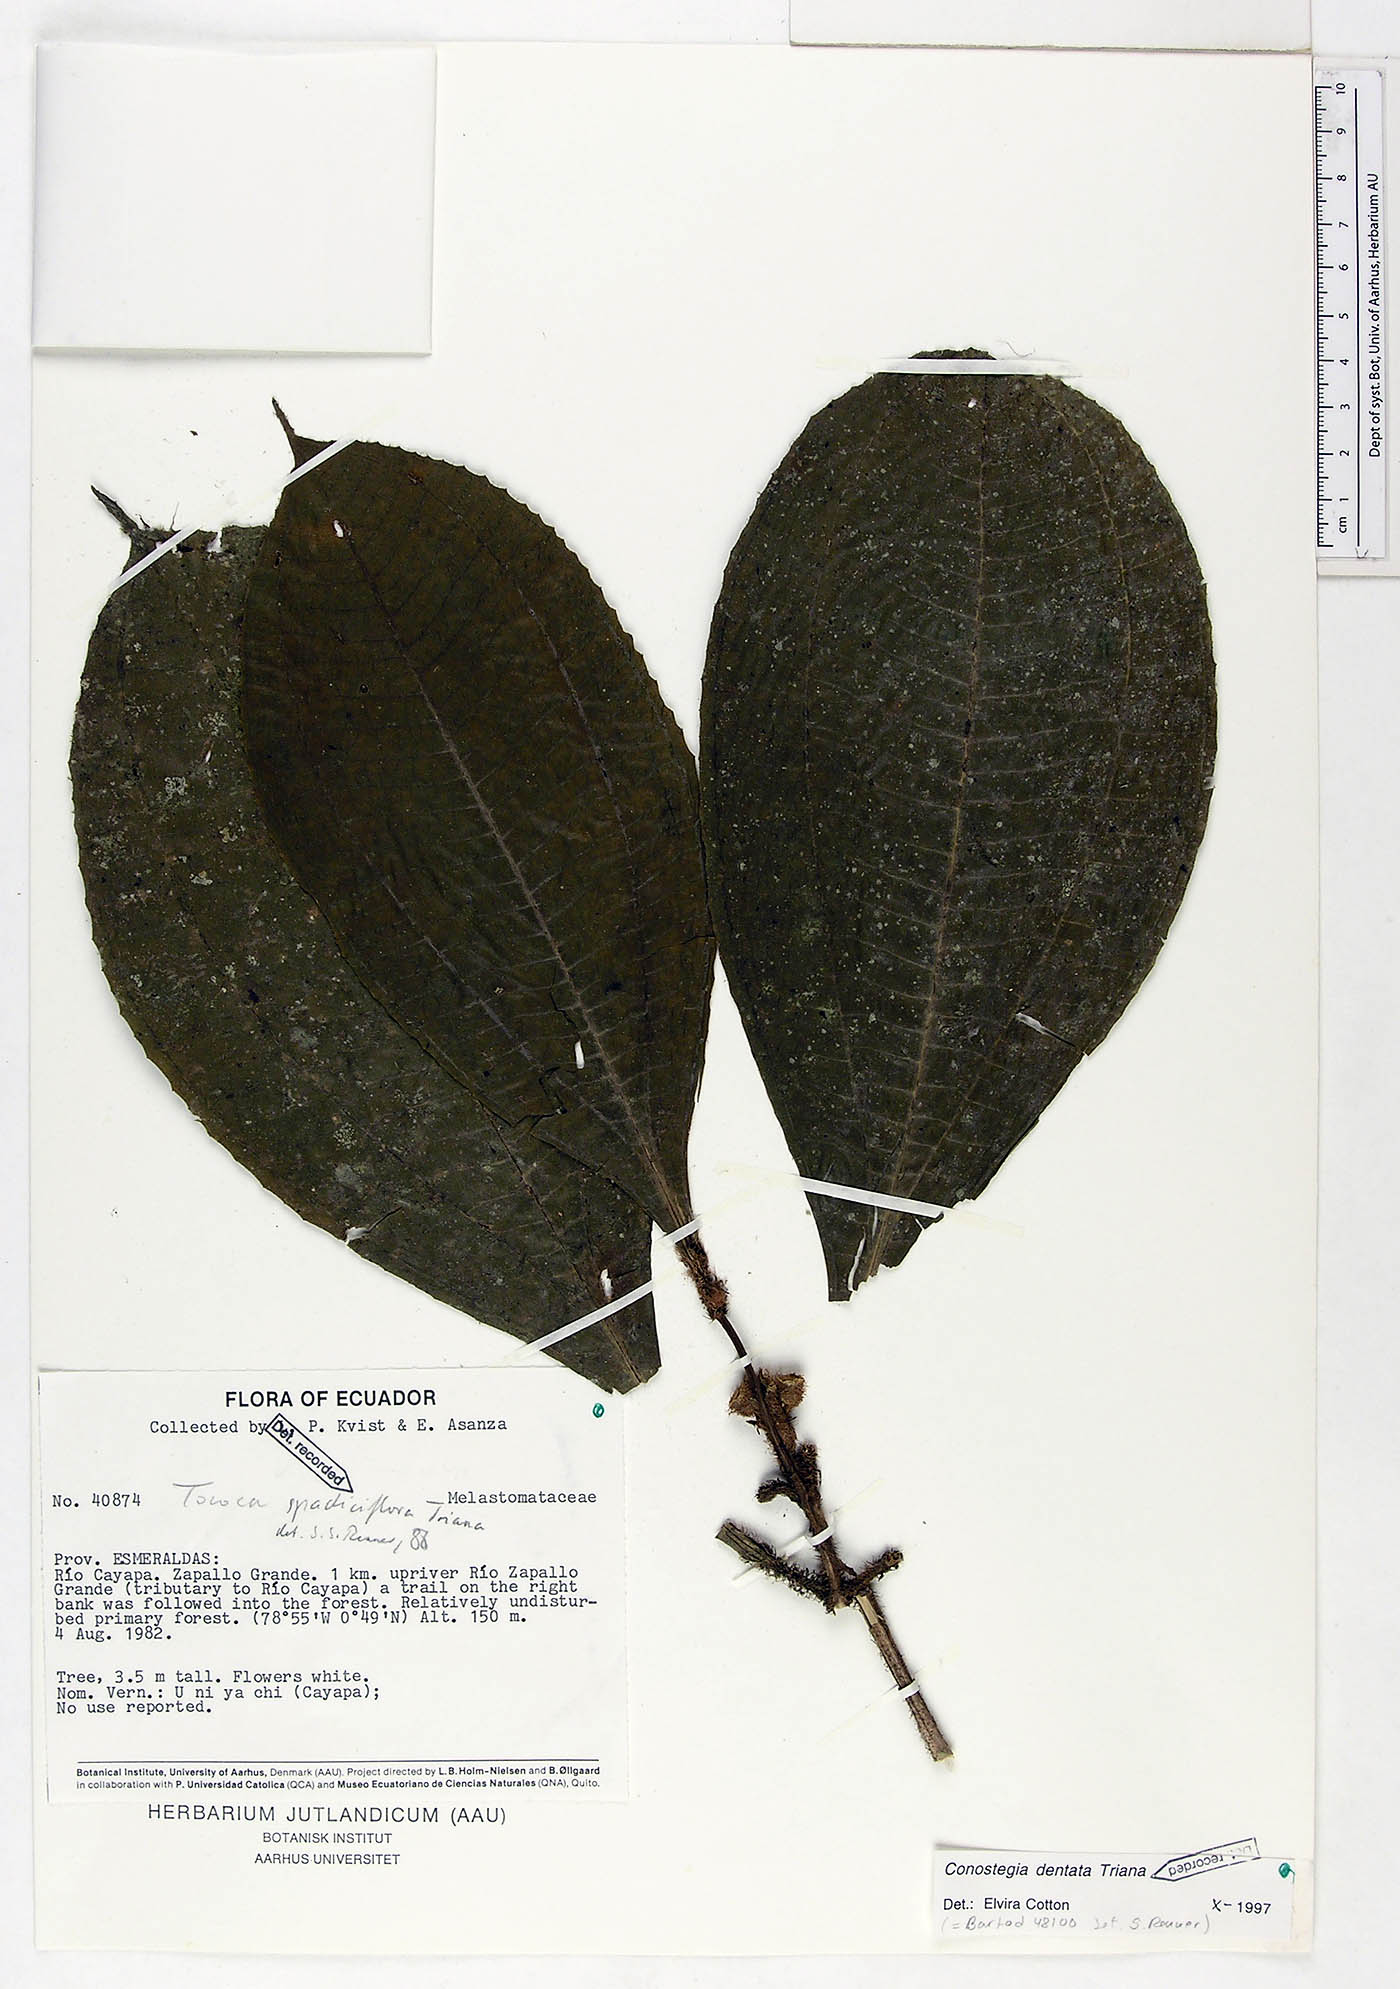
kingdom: Plantae
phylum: Tracheophyta
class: Magnoliopsida
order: Myrtales
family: Melastomataceae
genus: Miconia
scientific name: Miconia conodentata
